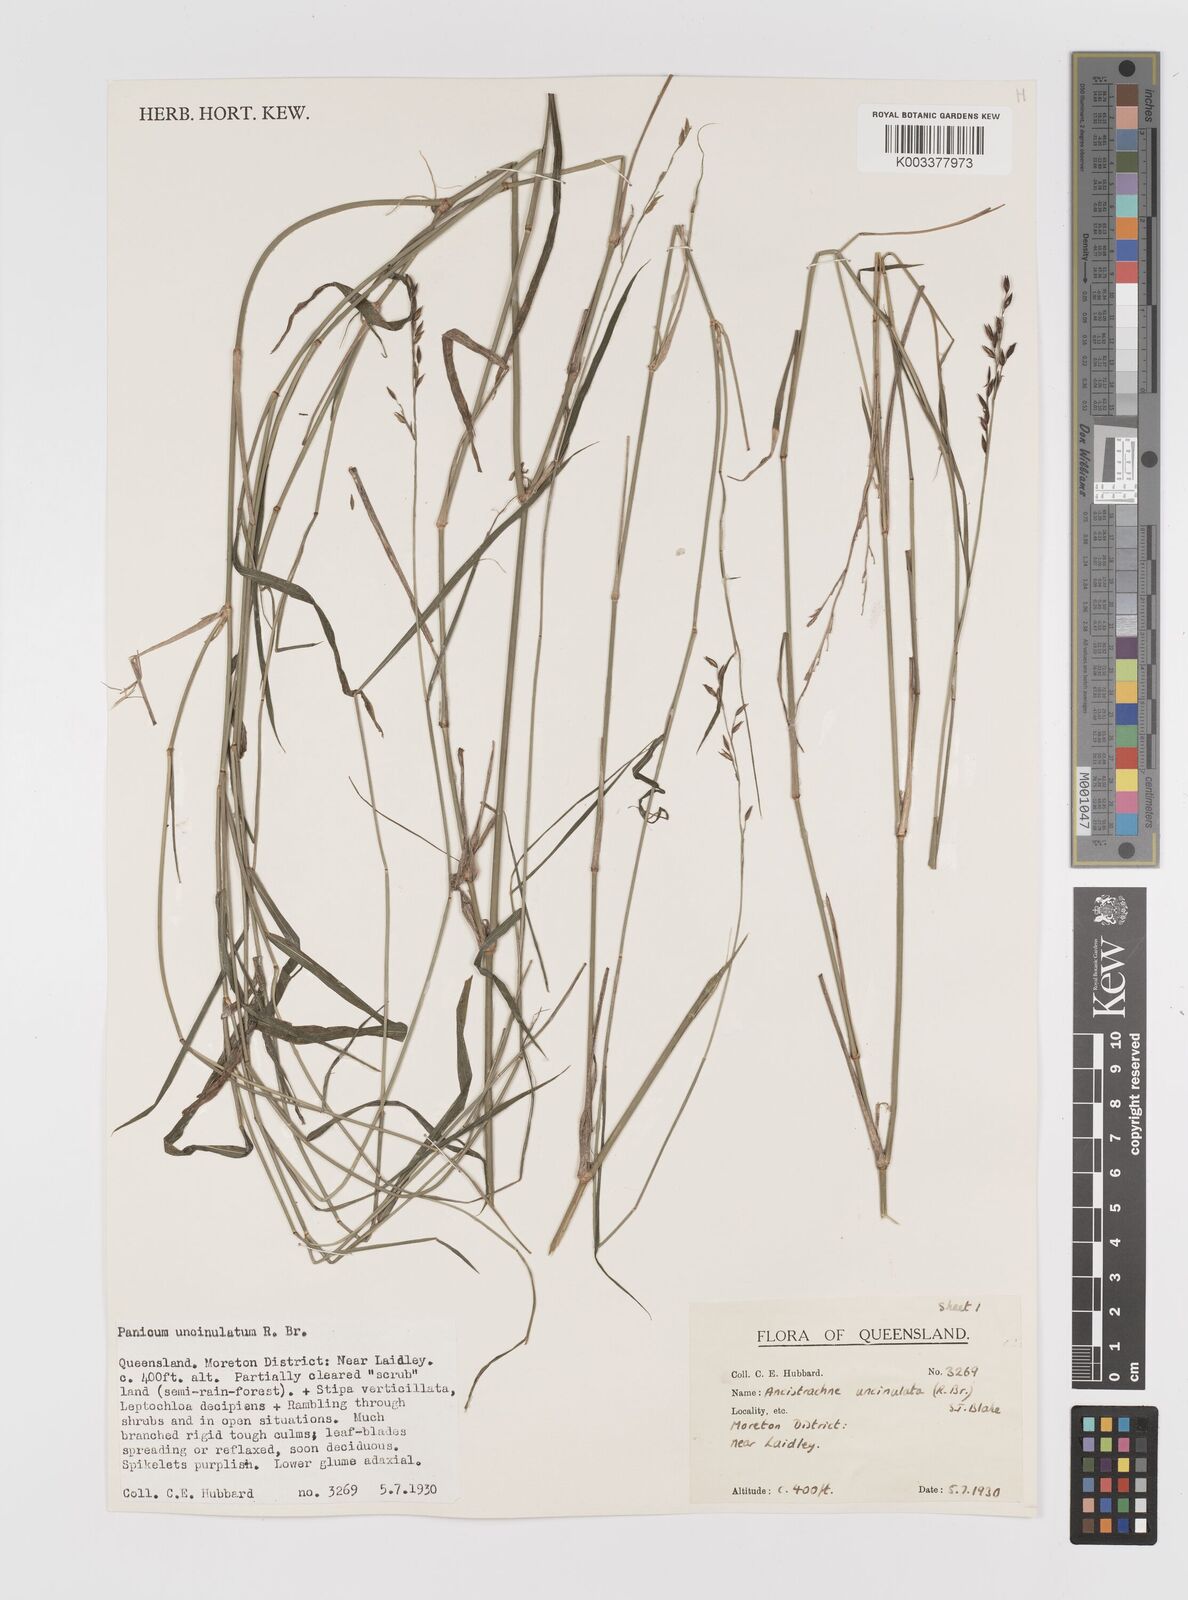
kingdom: Plantae
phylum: Tracheophyta
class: Liliopsida
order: Poales
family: Poaceae
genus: Ancistrachne
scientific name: Ancistrachne uncinulata
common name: Hooky grass
